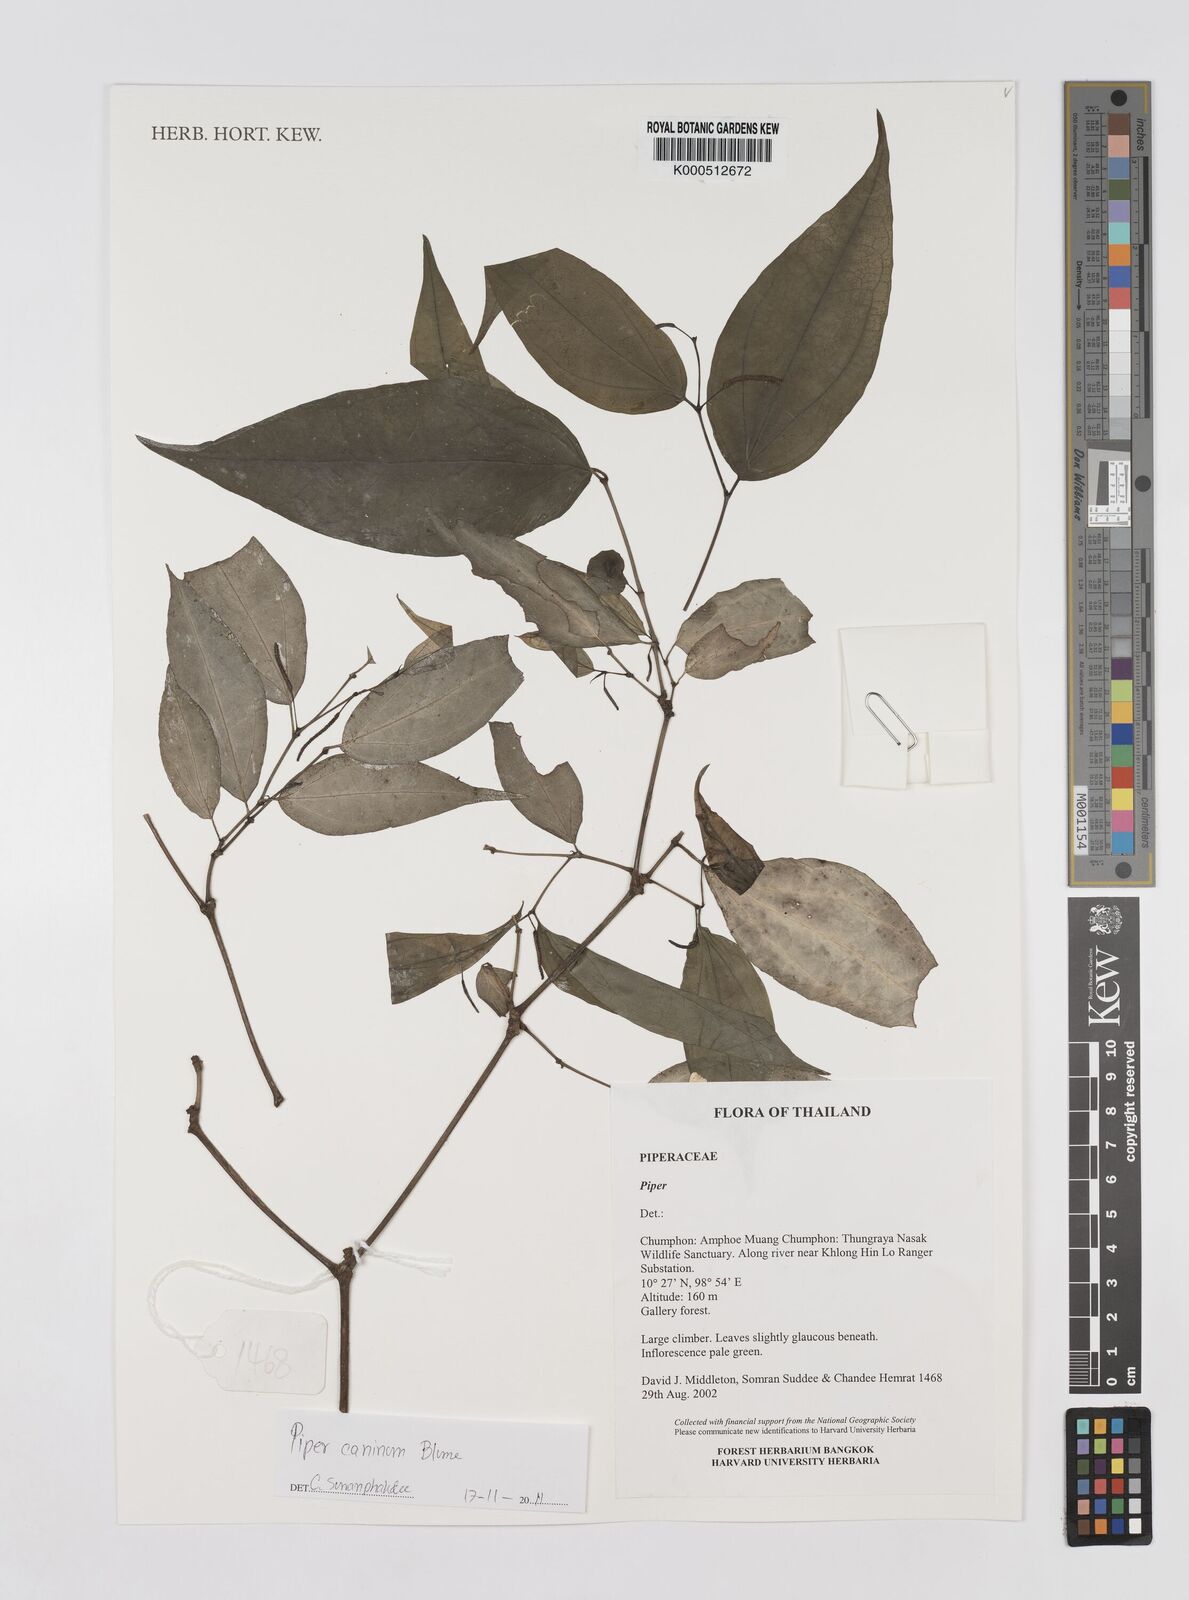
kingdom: Plantae
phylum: Tracheophyta
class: Magnoliopsida
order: Piperales
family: Piperaceae
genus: Piper
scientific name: Piper
